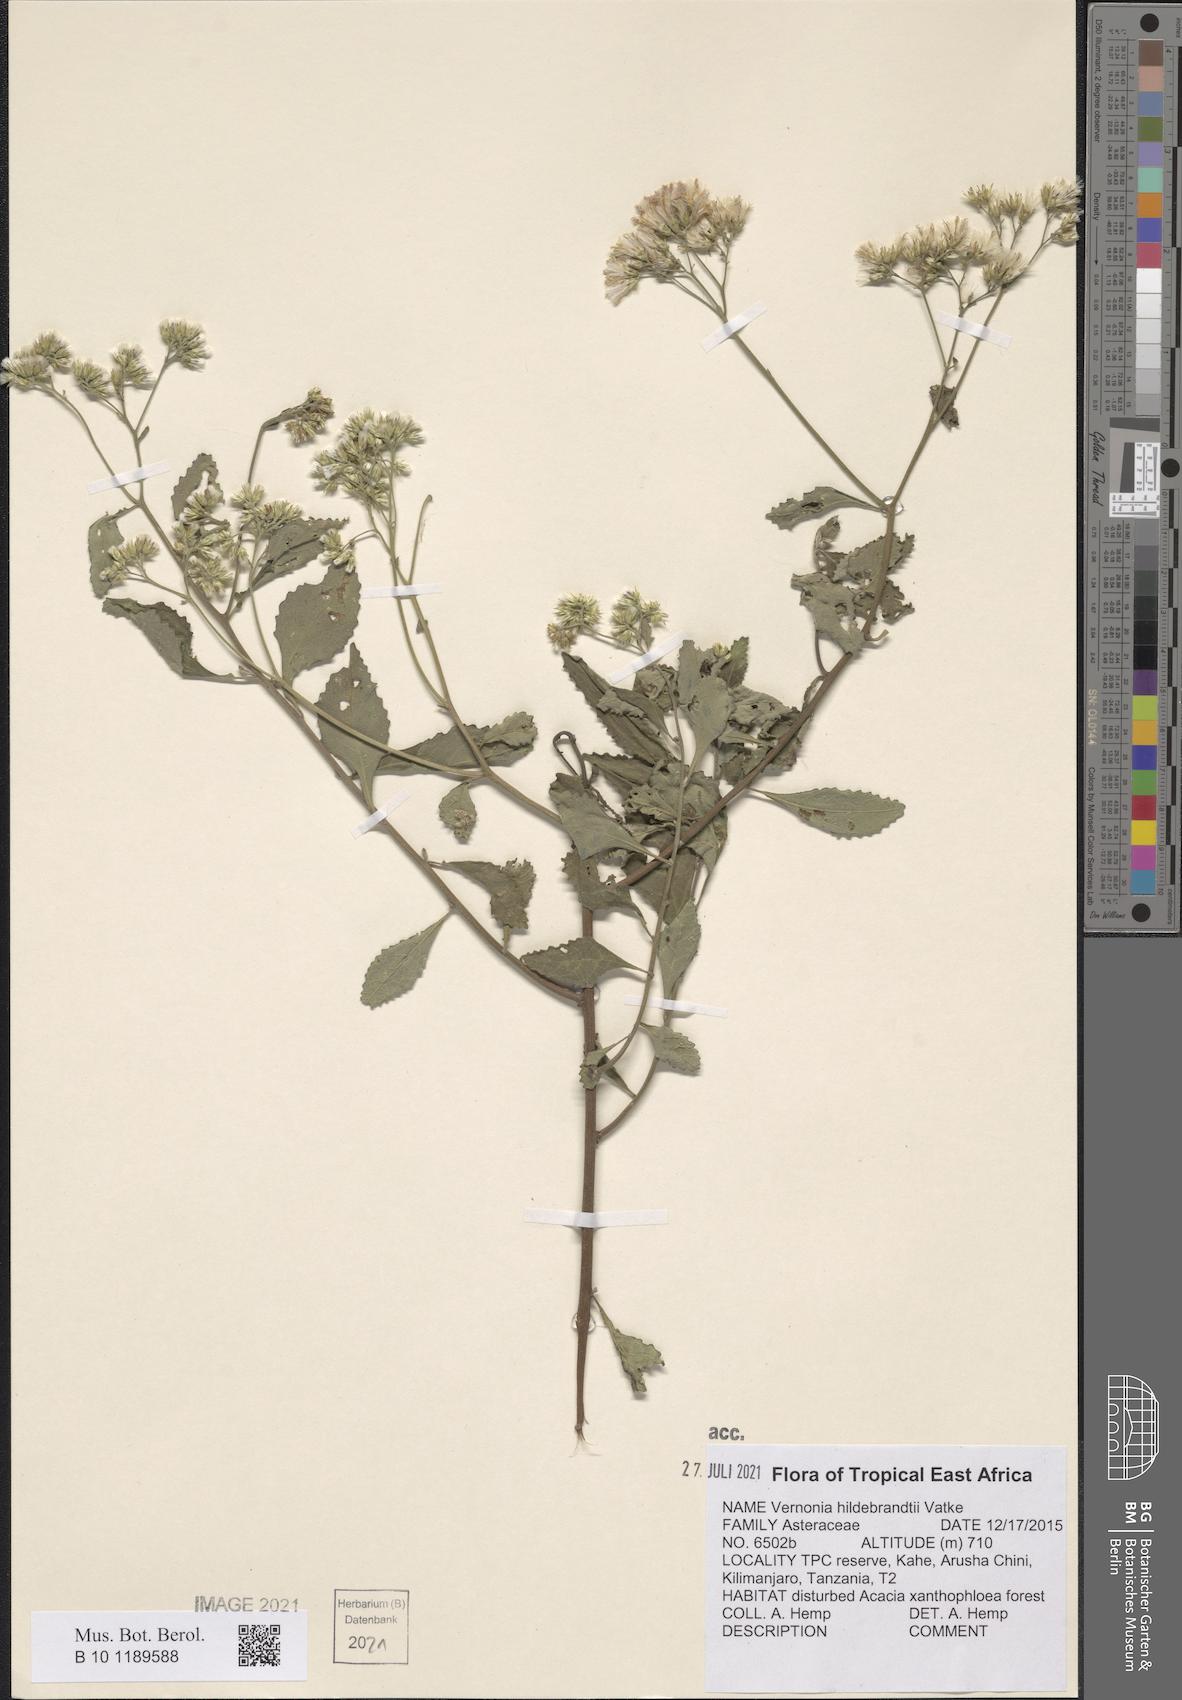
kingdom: Plantae
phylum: Tracheophyta
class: Magnoliopsida
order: Asterales
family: Asteraceae
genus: Jeffreycia
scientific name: Jeffreycia hildebrandtii
